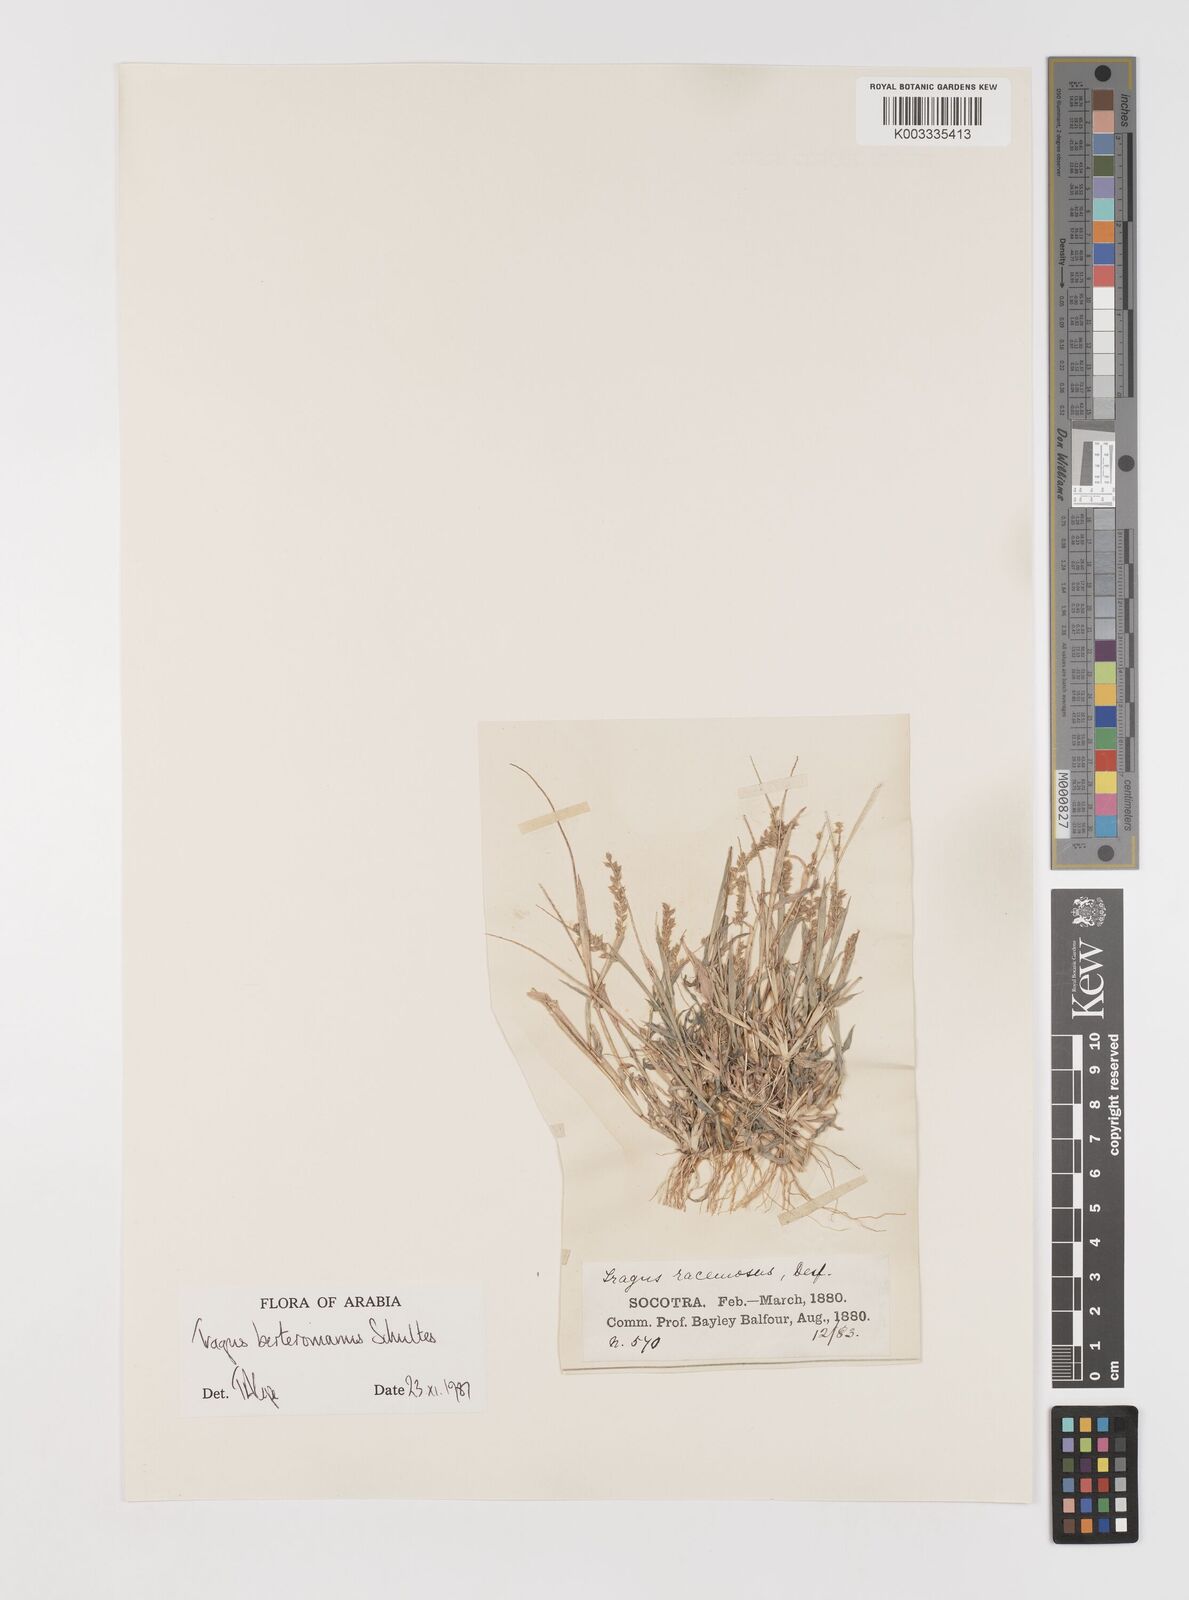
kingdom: Plantae
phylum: Tracheophyta
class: Liliopsida
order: Poales
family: Poaceae
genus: Tragus
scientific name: Tragus berteronianus
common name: African bur-grass
